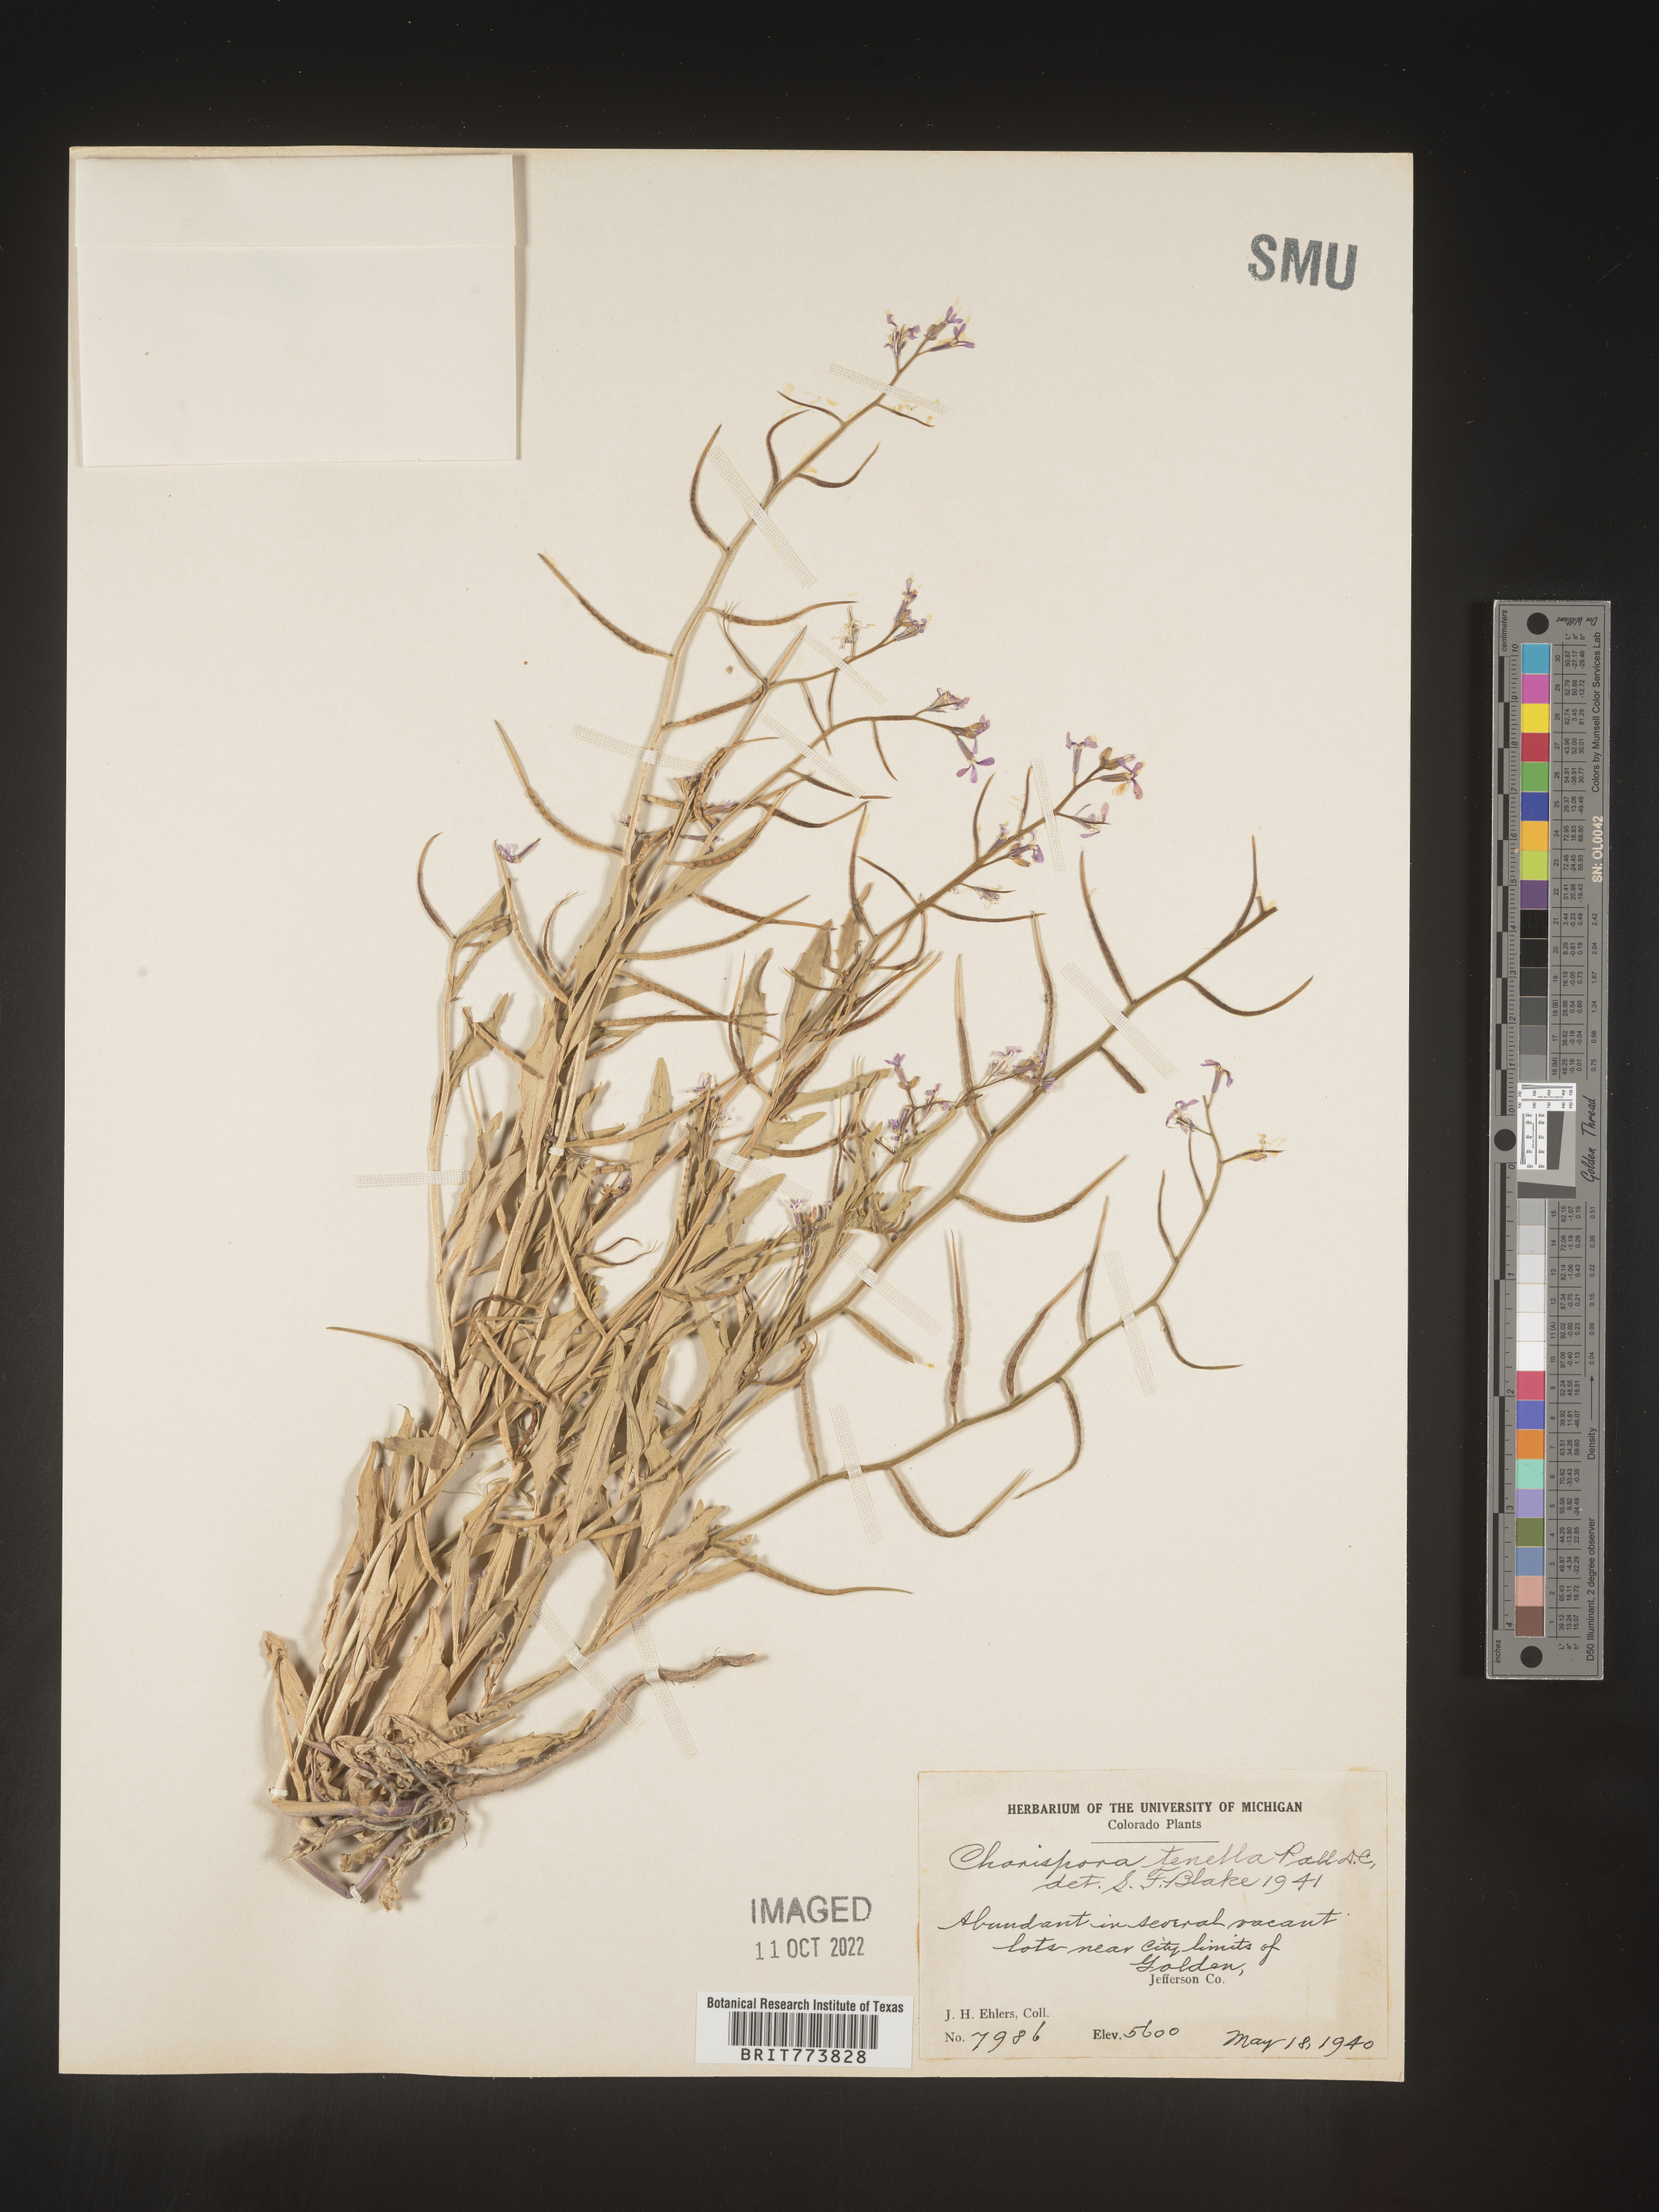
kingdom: Plantae
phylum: Tracheophyta
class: Magnoliopsida
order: Brassicales
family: Brassicaceae
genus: Chorispora
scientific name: Chorispora tenella
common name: Crossflower
